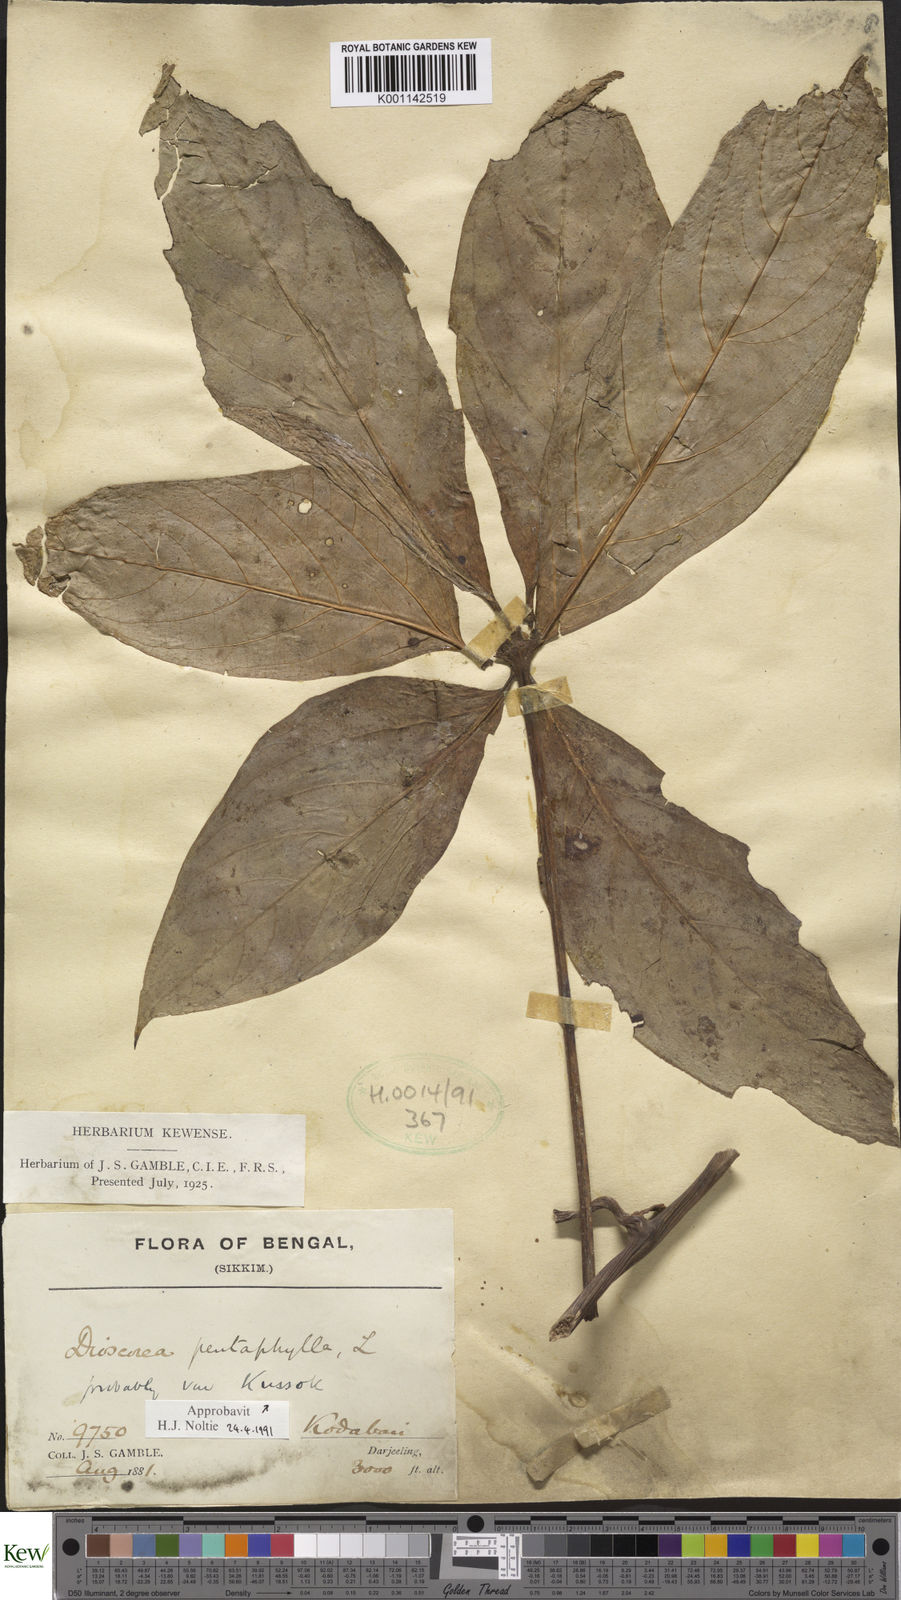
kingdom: Plantae
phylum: Tracheophyta
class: Liliopsida
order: Dioscoreales
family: Dioscoreaceae
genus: Dioscorea
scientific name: Dioscorea pentaphylla
